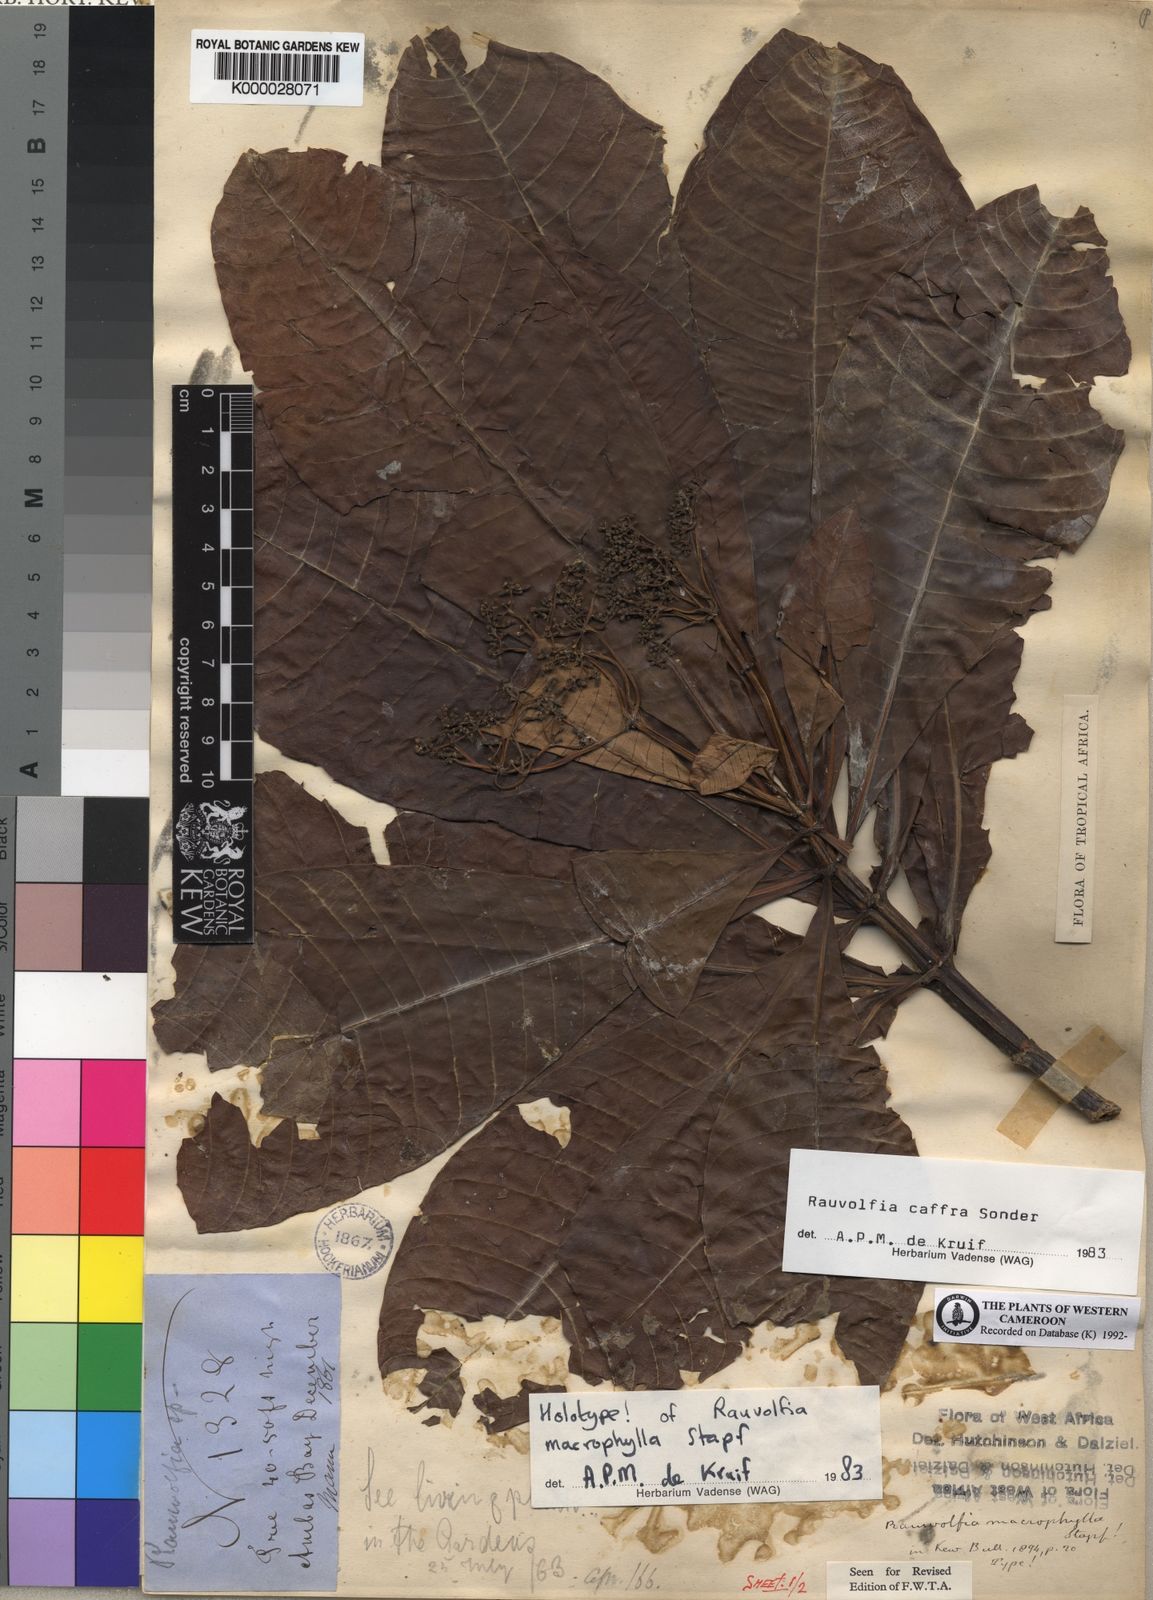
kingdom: Plantae
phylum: Tracheophyta
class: Magnoliopsida
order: Gentianales
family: Apocynaceae
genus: Rauvolfia
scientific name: Rauvolfia caffra
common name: Quininetree
